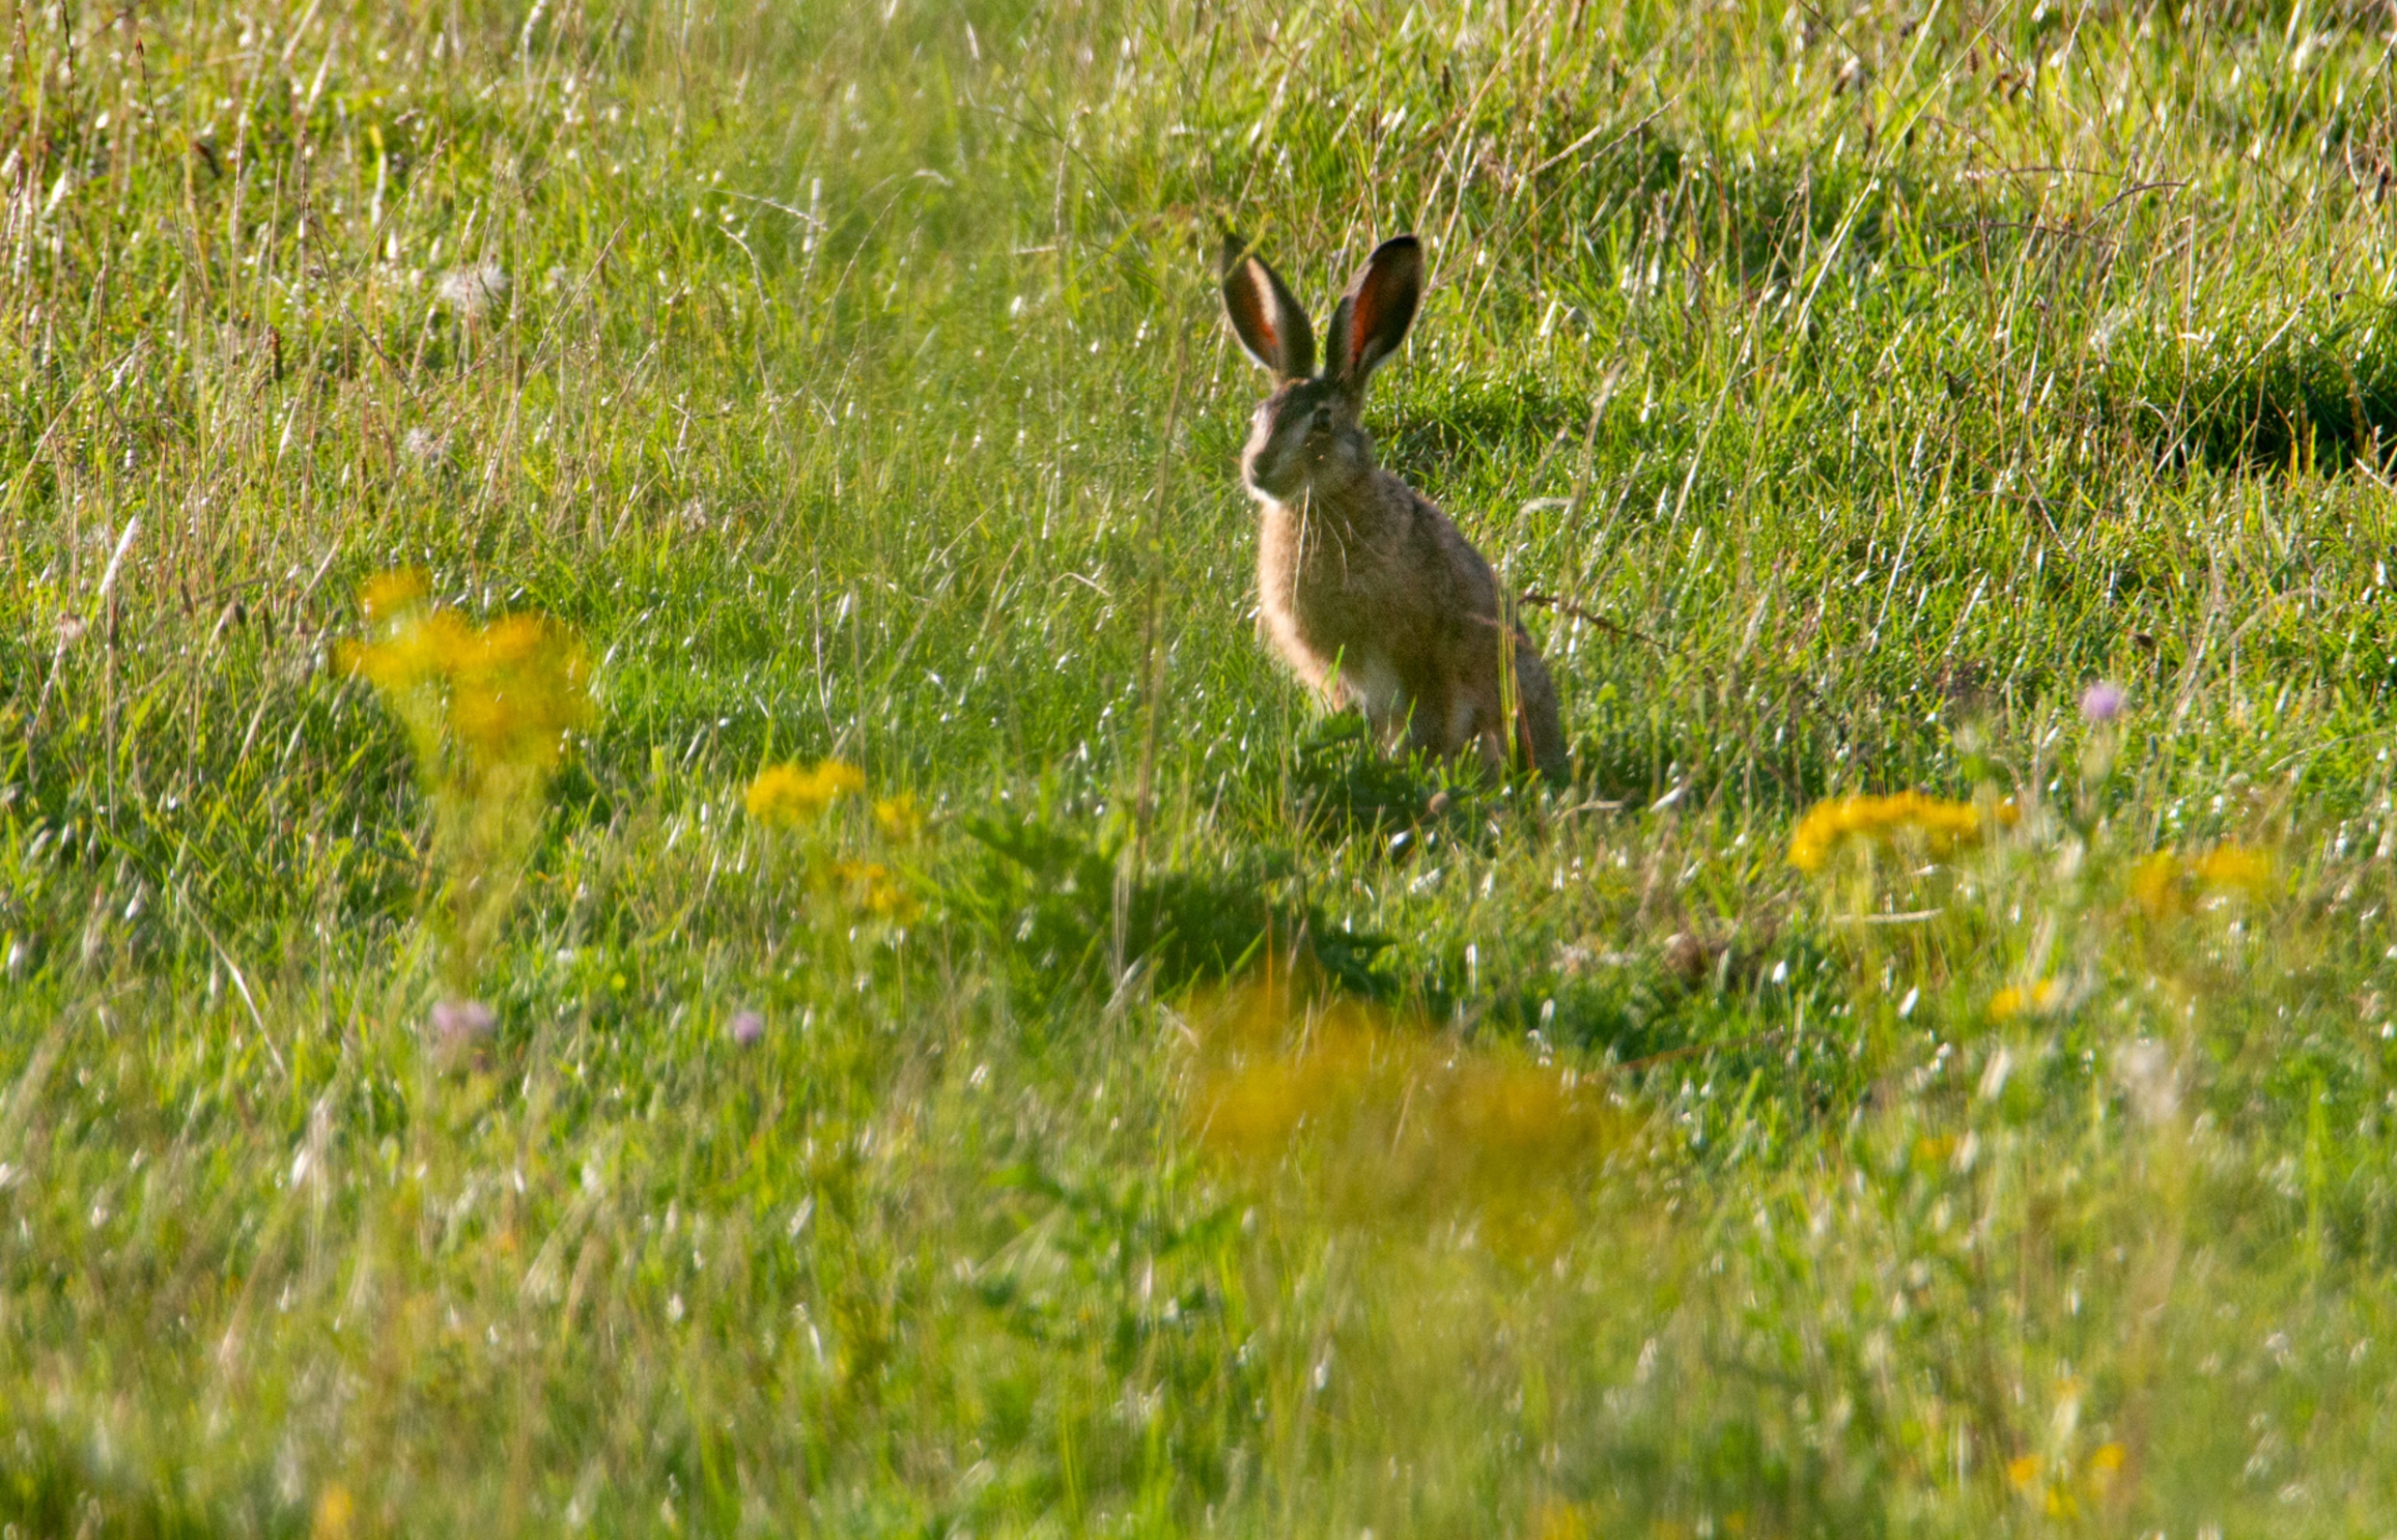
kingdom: Animalia
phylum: Chordata
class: Mammalia
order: Lagomorpha
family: Leporidae
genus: Lepus
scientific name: Lepus europaeus
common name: Hare
